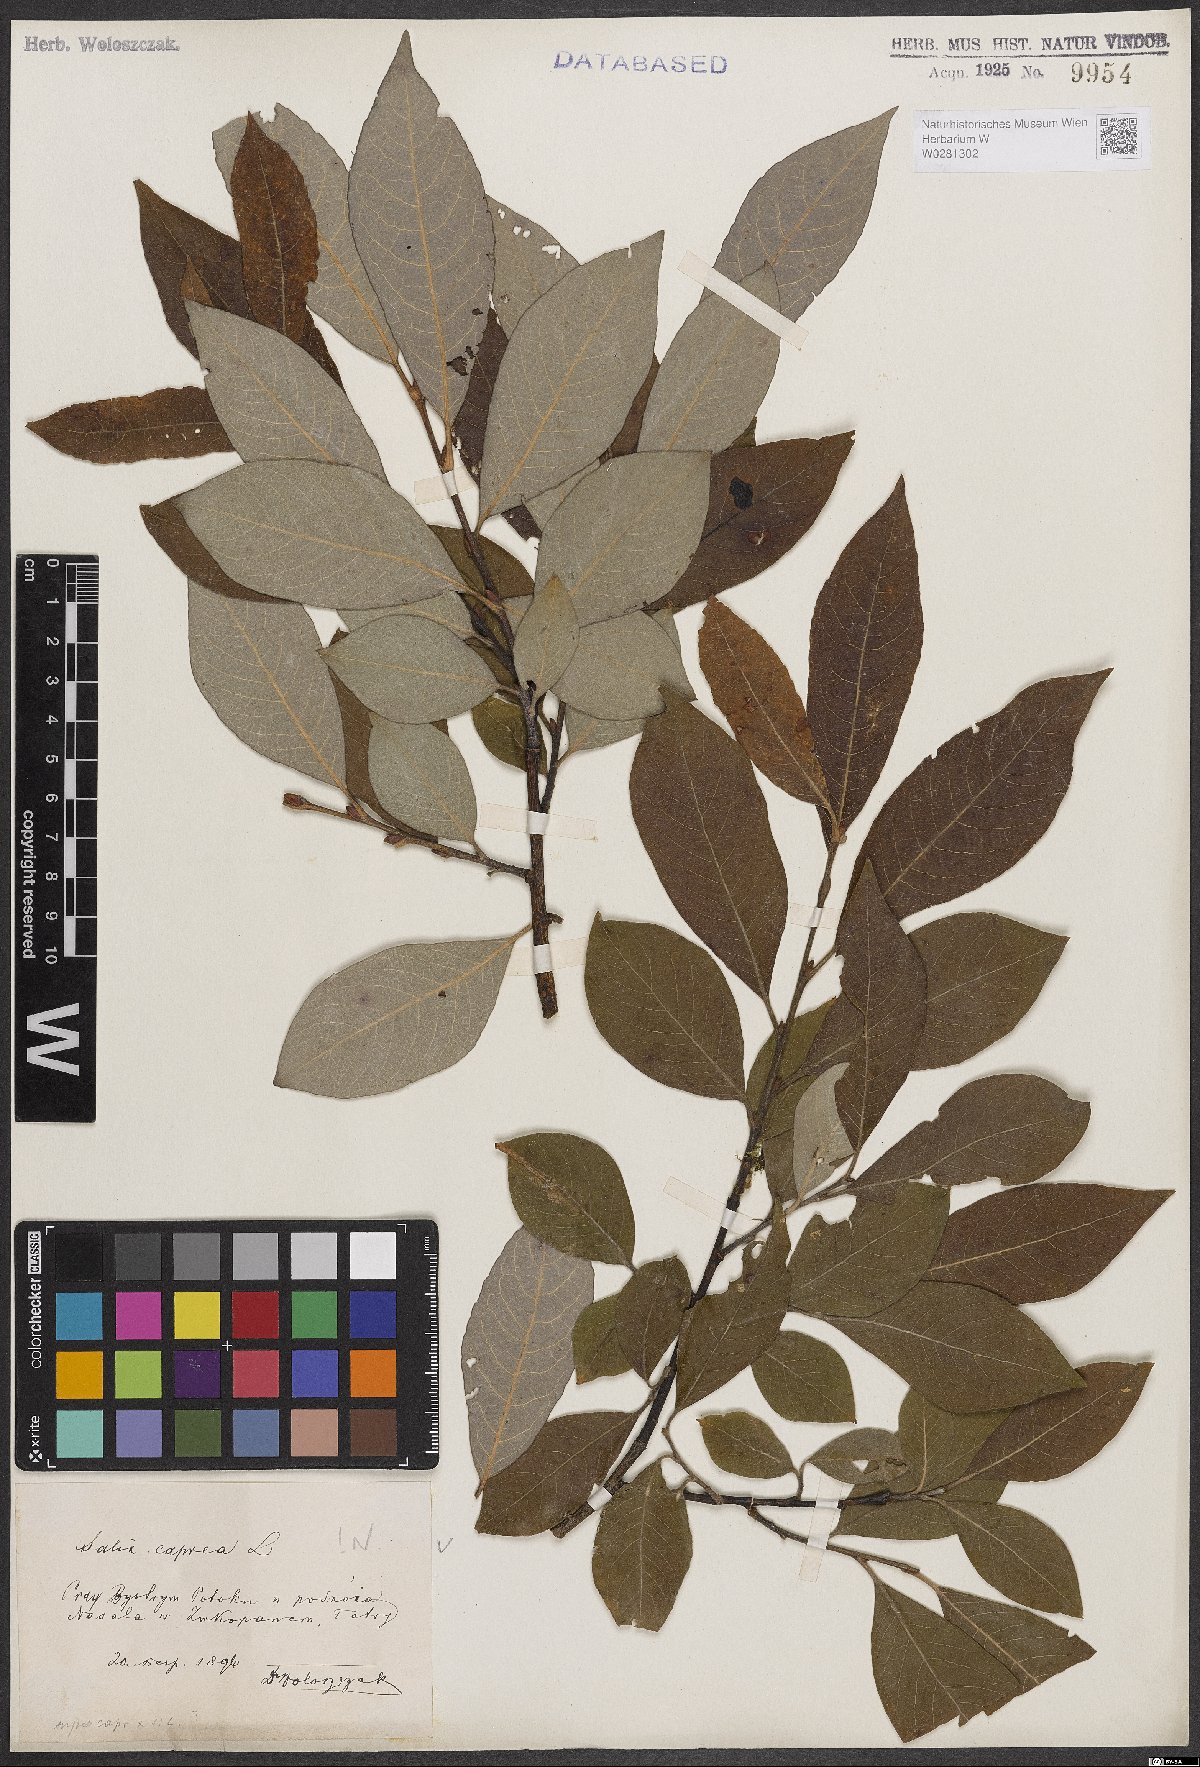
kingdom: Plantae
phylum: Tracheophyta
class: Magnoliopsida
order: Malpighiales
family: Salicaceae
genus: Salix
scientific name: Salix caprea
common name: Goat willow
